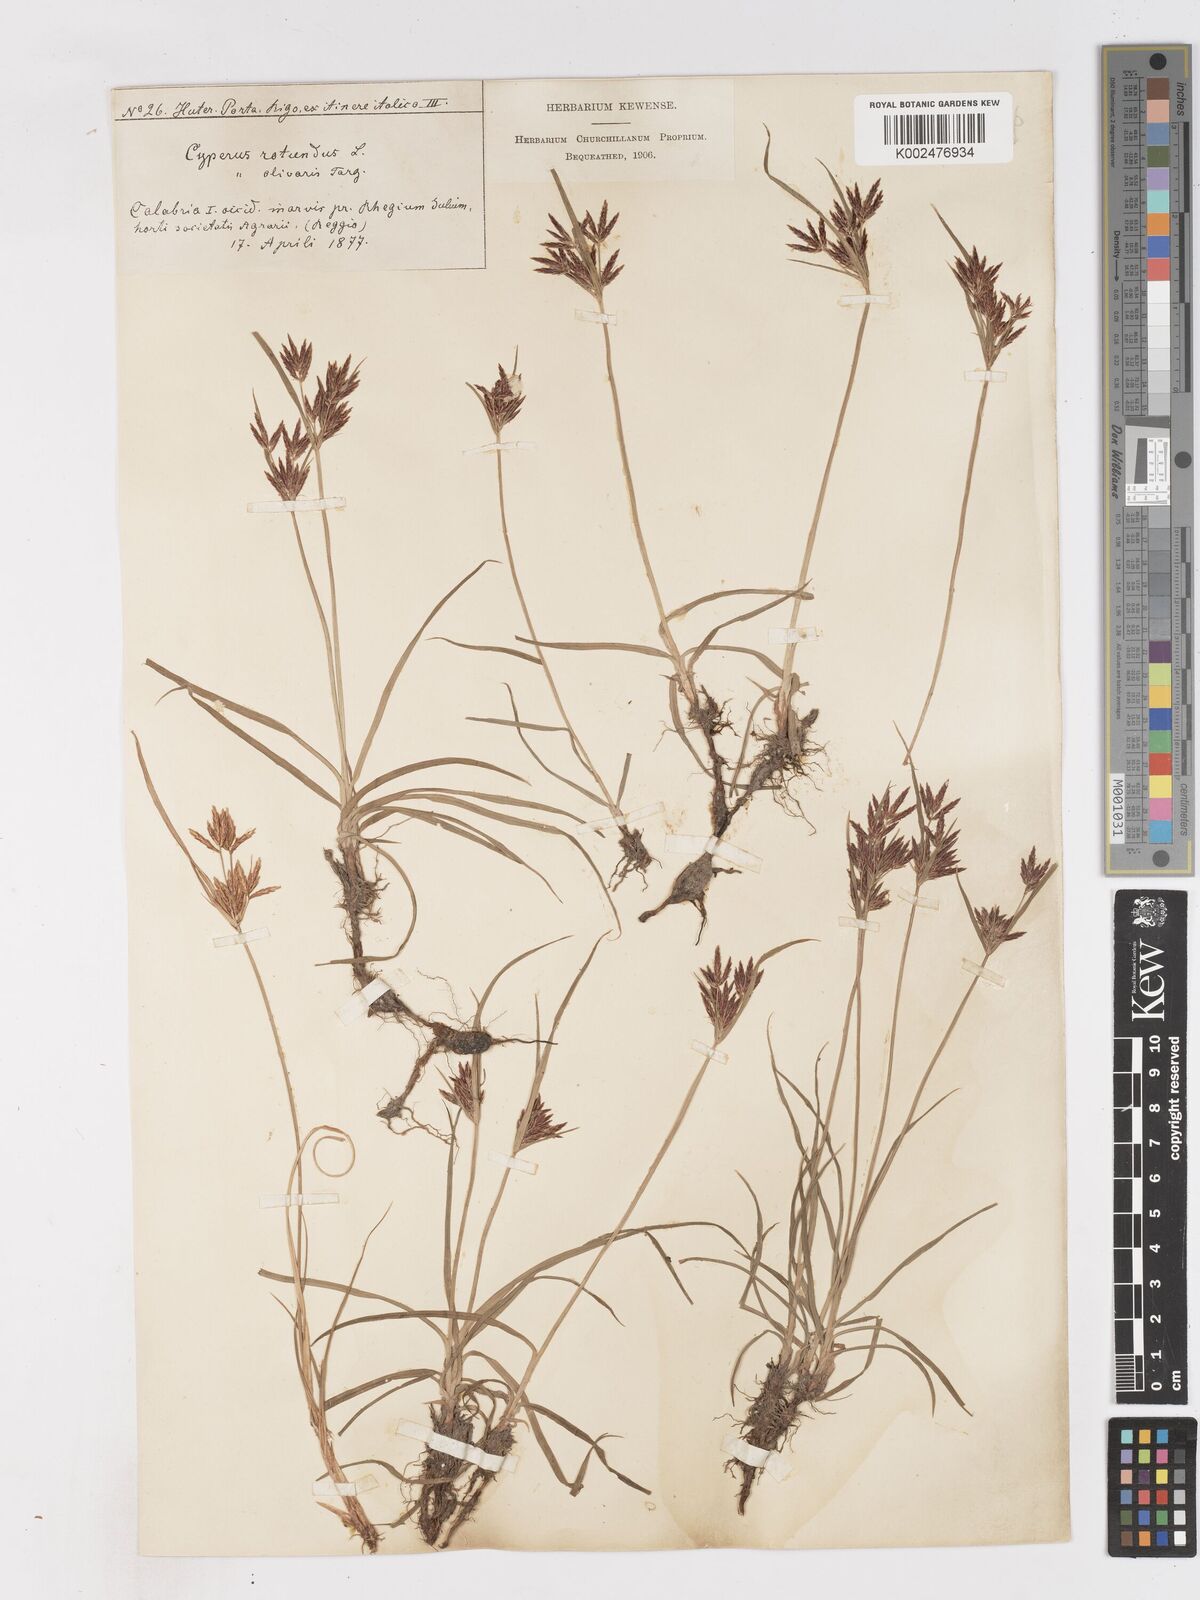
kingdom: Plantae
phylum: Tracheophyta
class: Liliopsida
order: Poales
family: Cyperaceae
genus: Cyperus
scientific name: Cyperus rotundus
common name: Nutgrass
